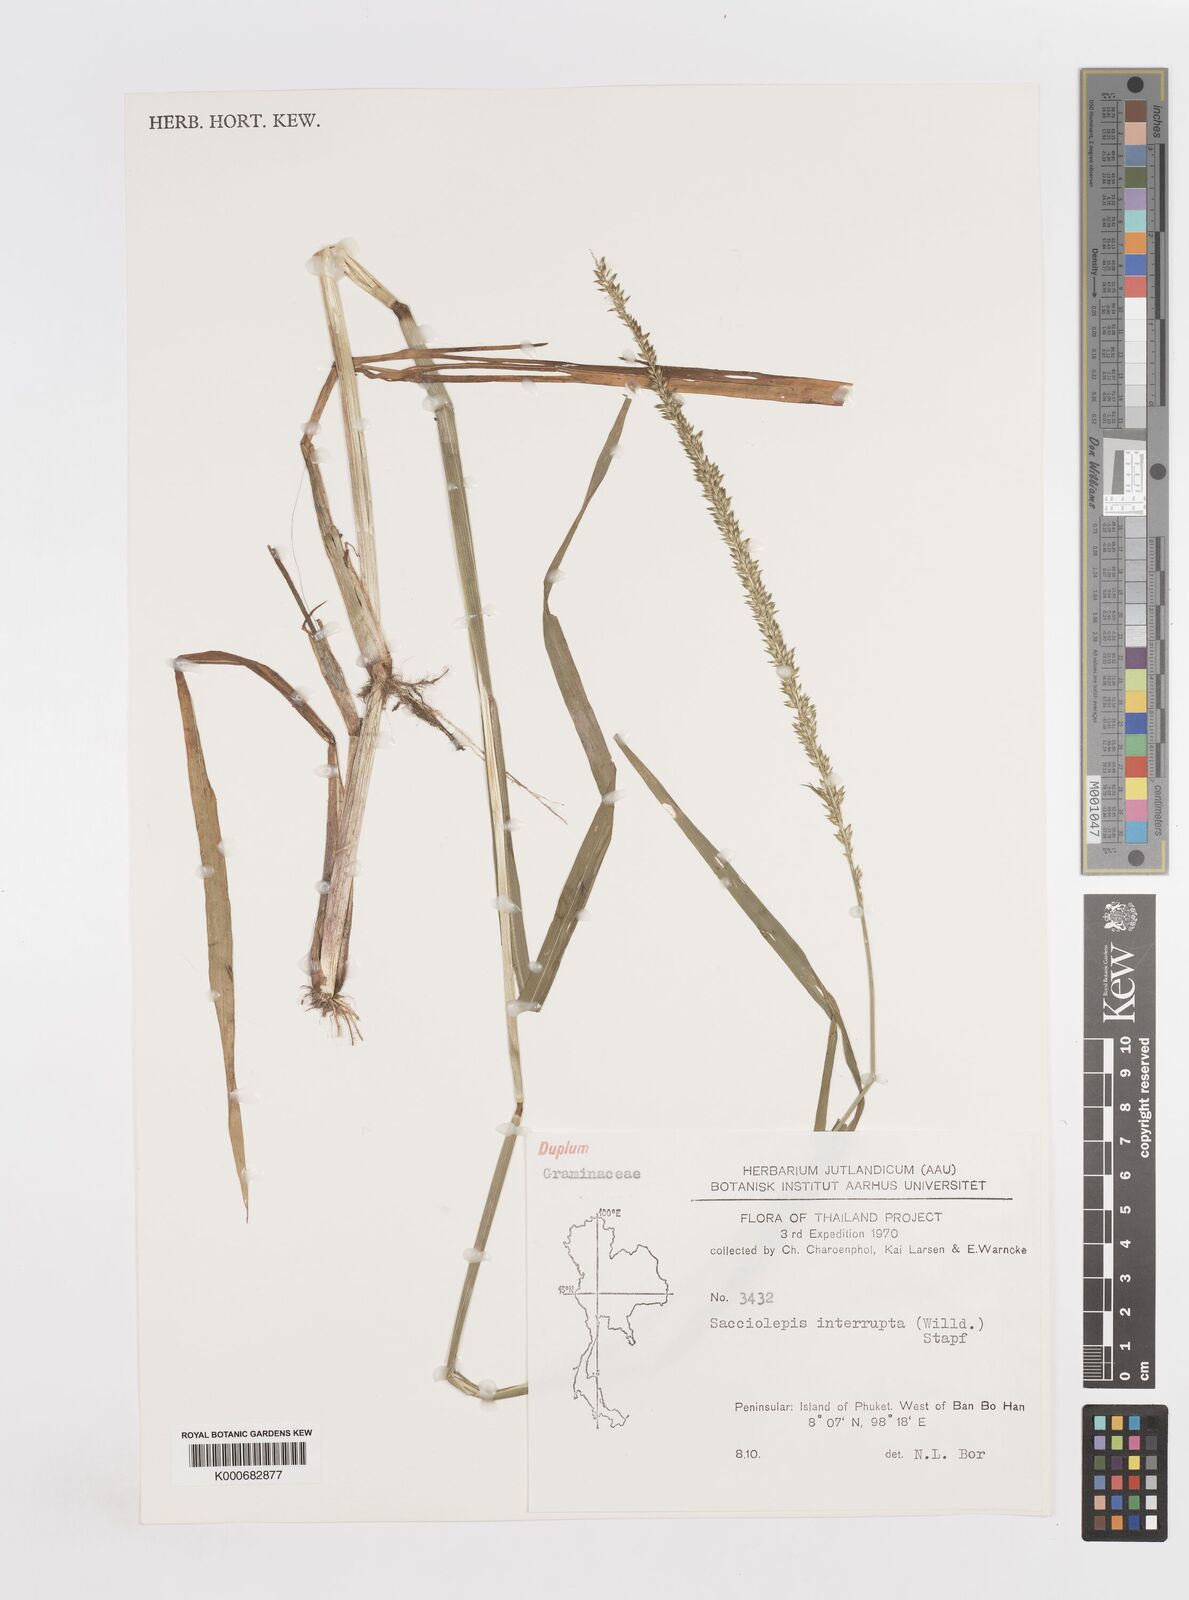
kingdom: Plantae
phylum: Tracheophyta
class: Liliopsida
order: Poales
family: Poaceae
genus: Sacciolepis
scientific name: Sacciolepis interrupta
